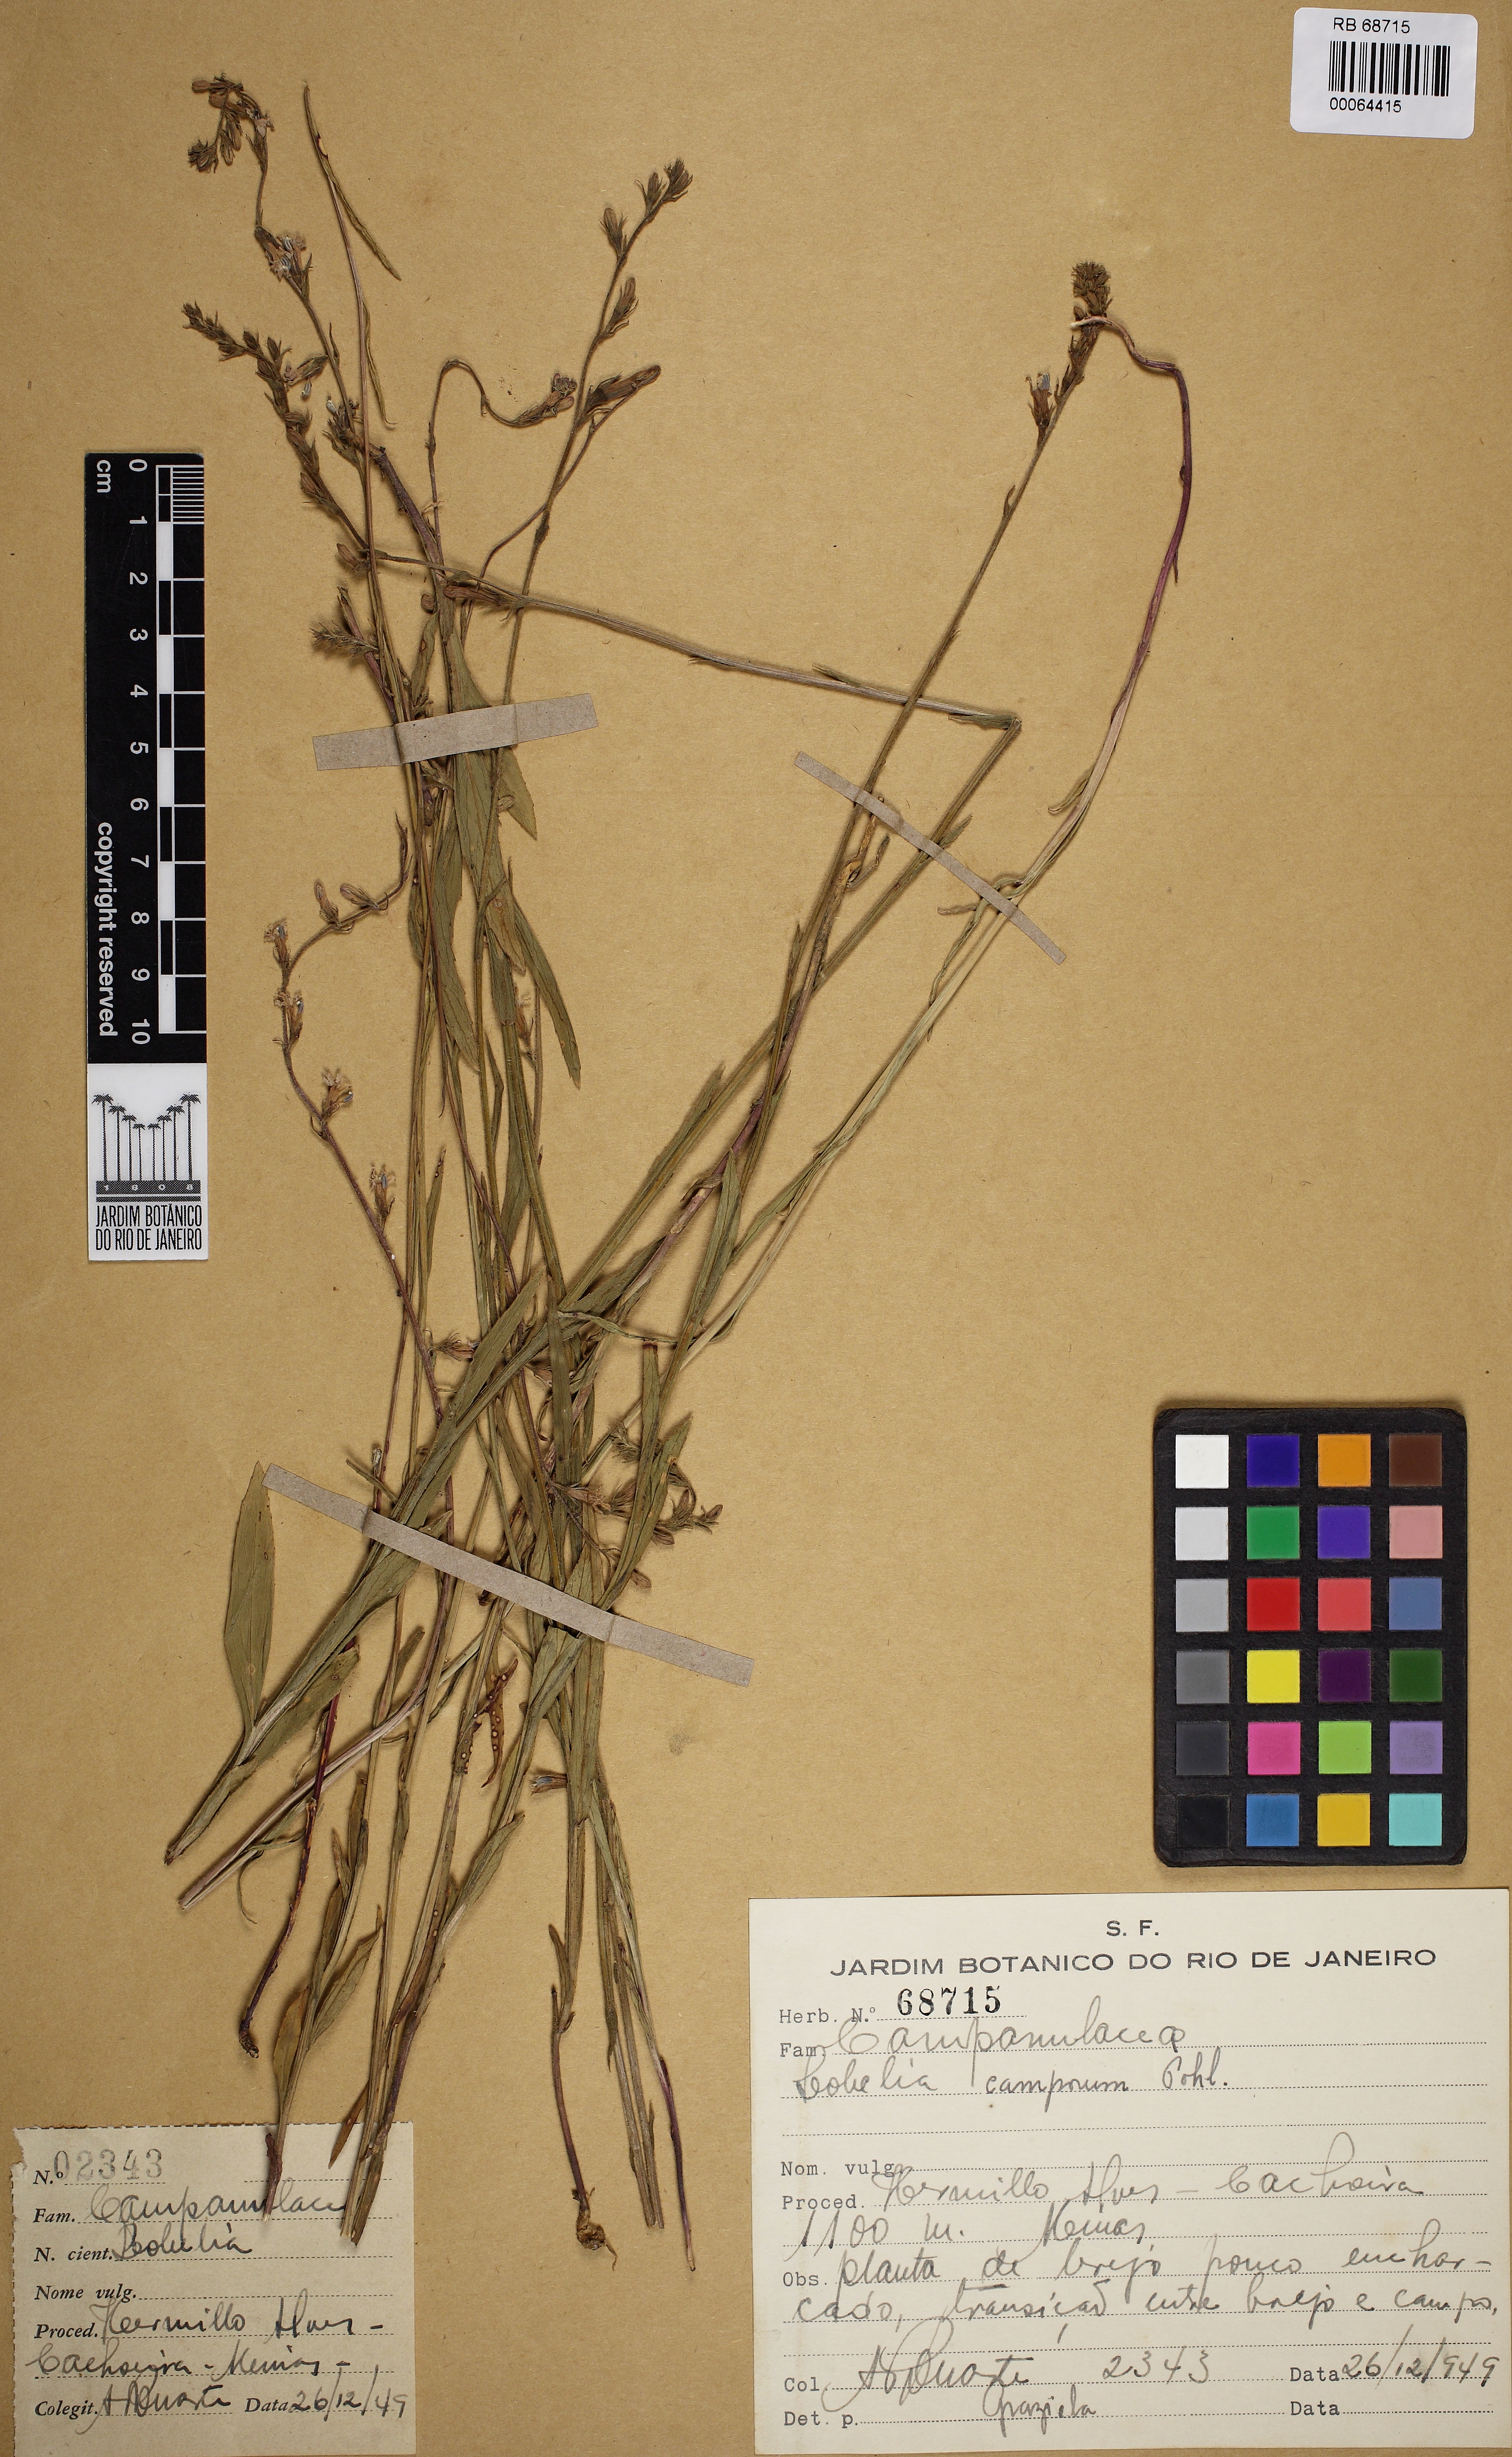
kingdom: Plantae
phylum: Tracheophyta
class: Magnoliopsida
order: Asterales
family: Campanulaceae
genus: Lobelia
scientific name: Lobelia camporum
